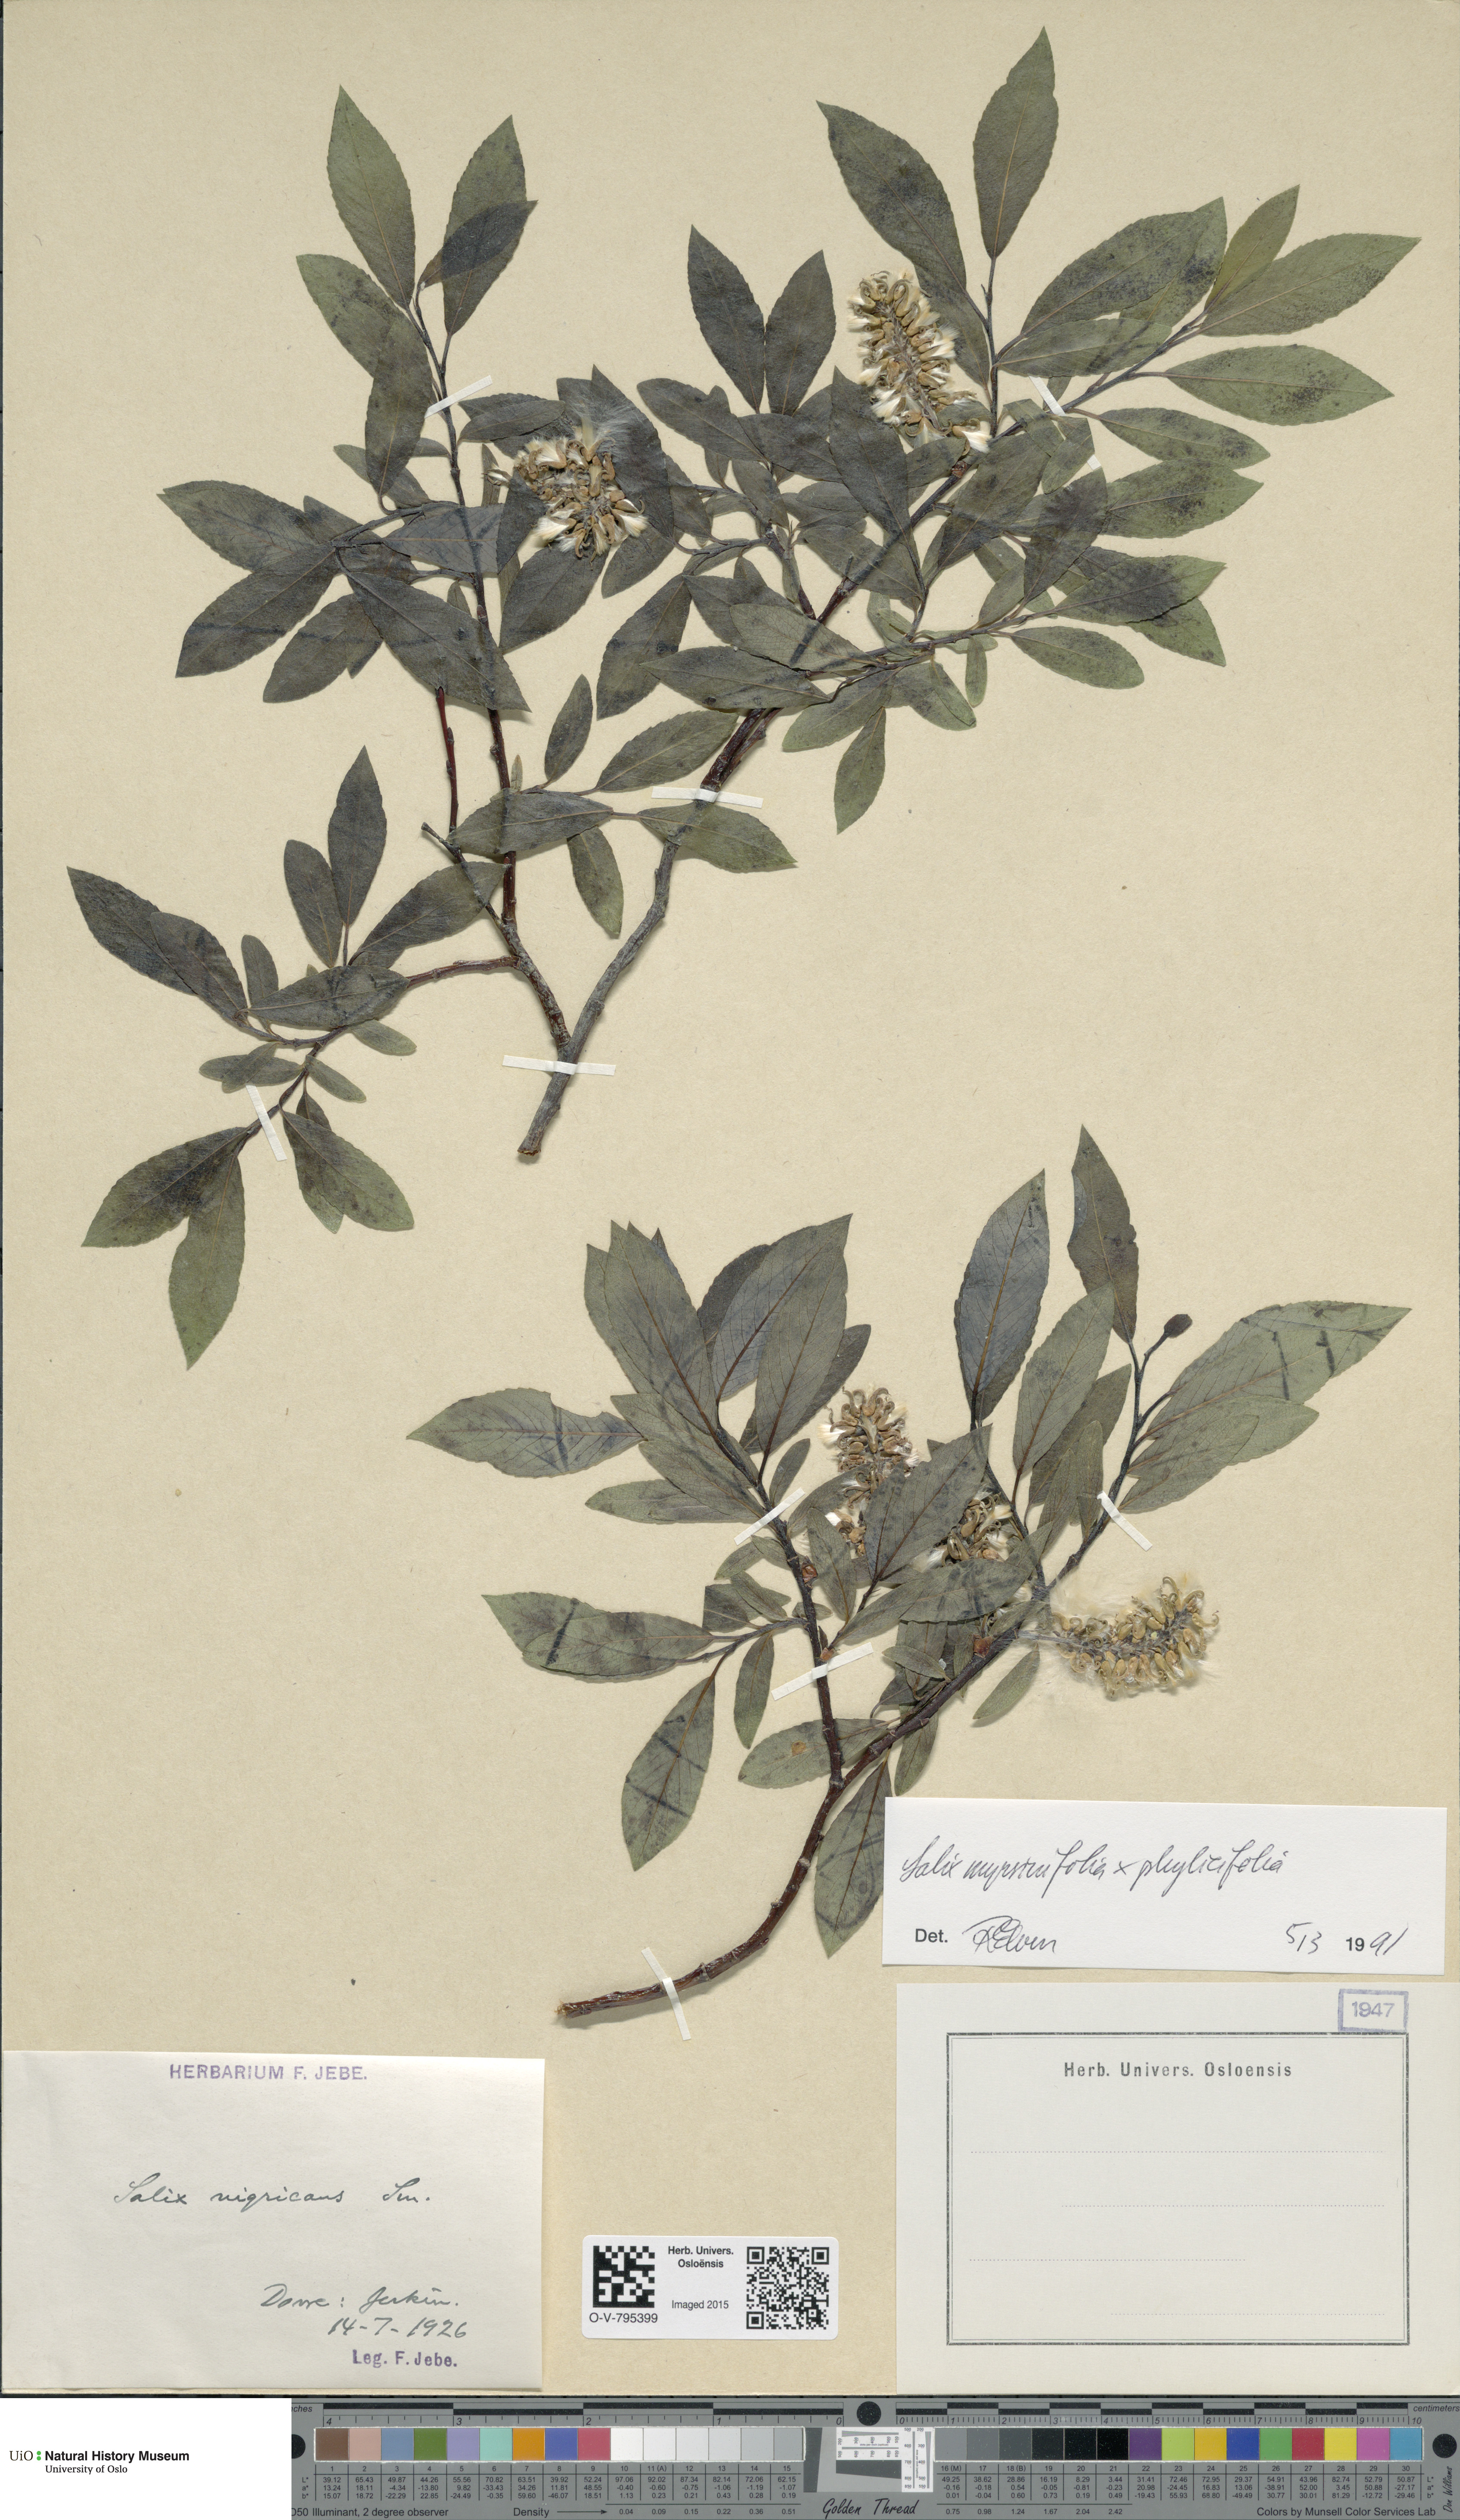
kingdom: Plantae
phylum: Tracheophyta
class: Magnoliopsida
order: Malpighiales
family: Salicaceae
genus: Salix
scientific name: Salix
